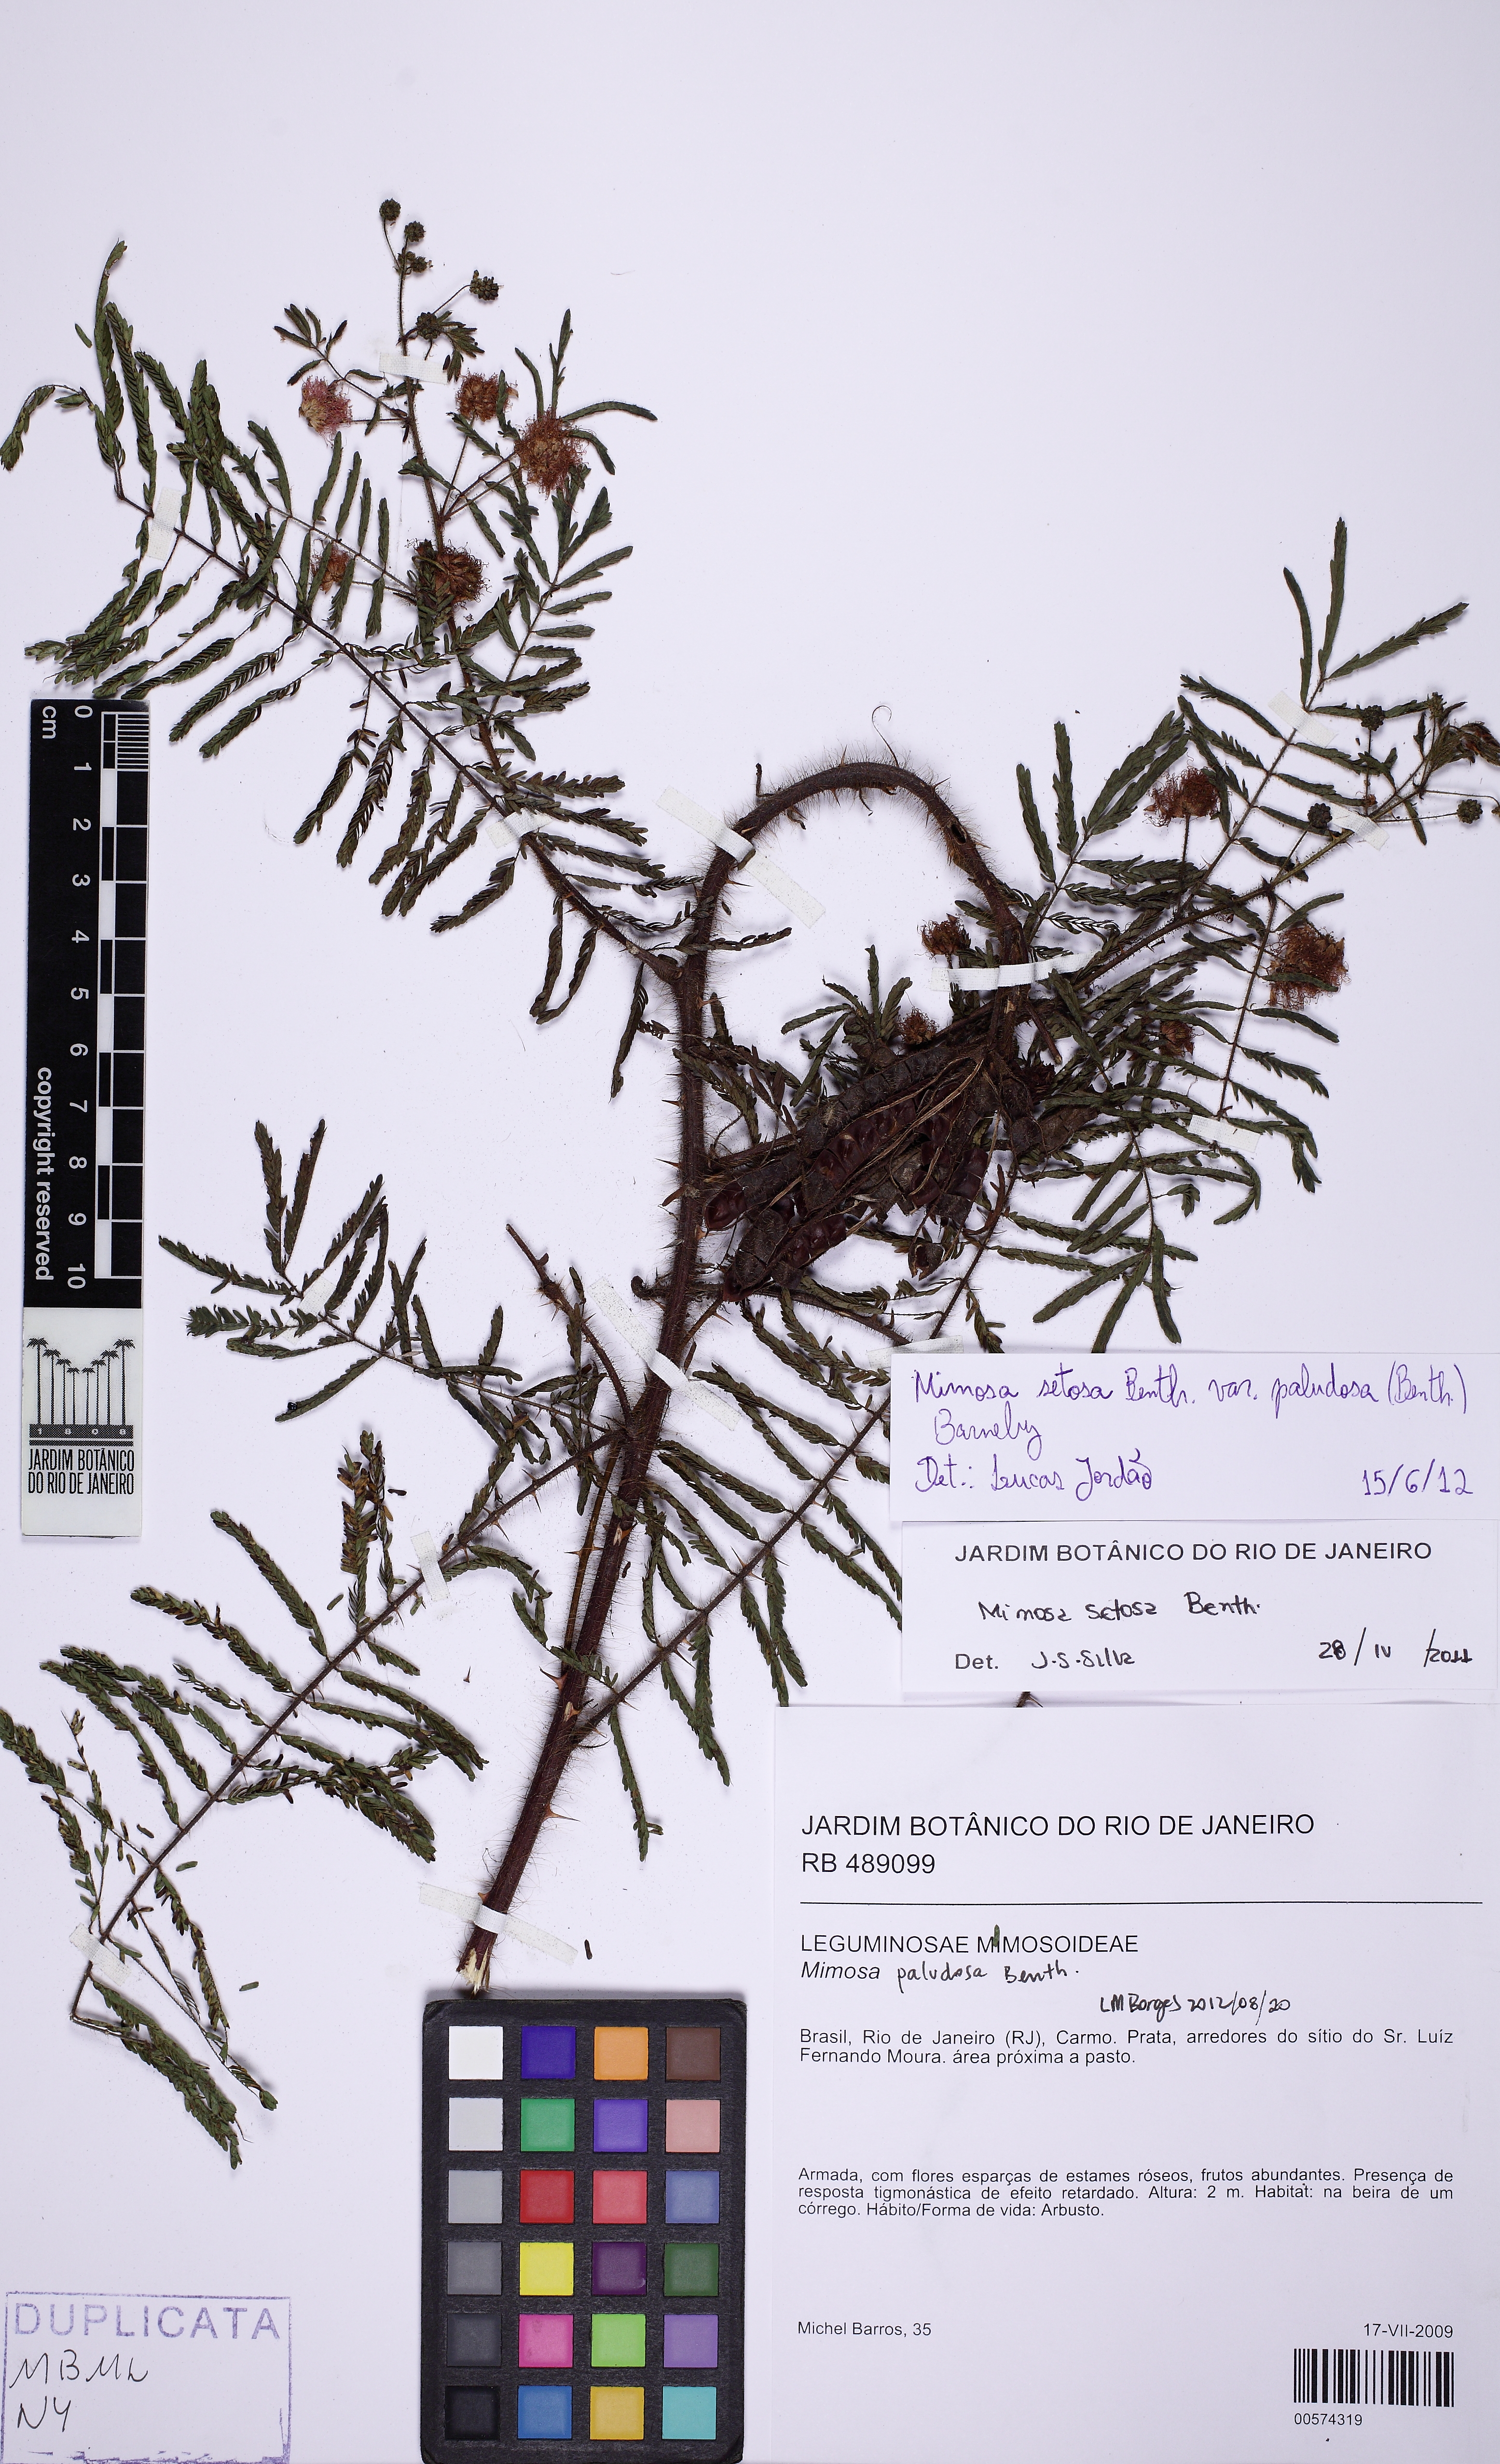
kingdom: Plantae
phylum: Tracheophyta
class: Magnoliopsida
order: Fabales
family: Fabaceae
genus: Mimosa
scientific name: Mimosa paludosa
